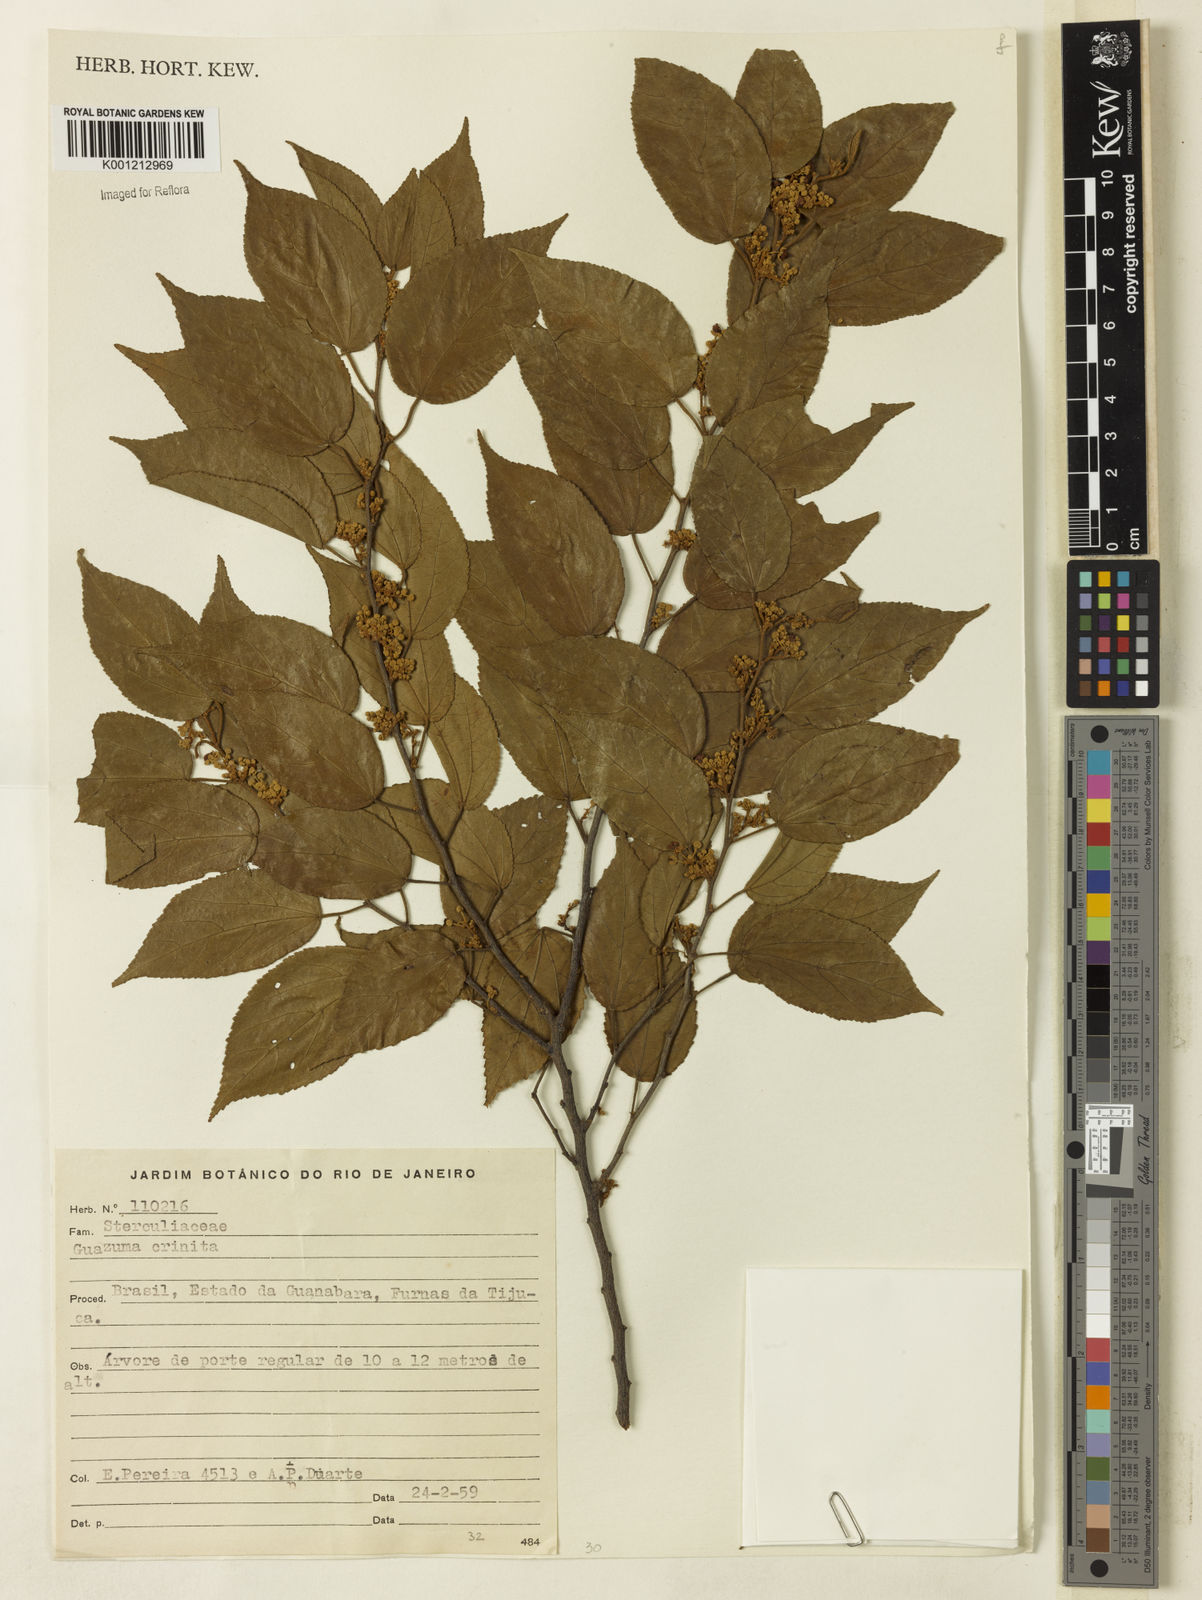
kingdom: Plantae
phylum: Tracheophyta
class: Magnoliopsida
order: Malvales
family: Malvaceae
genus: Guazuma
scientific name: Guazuma crinita
